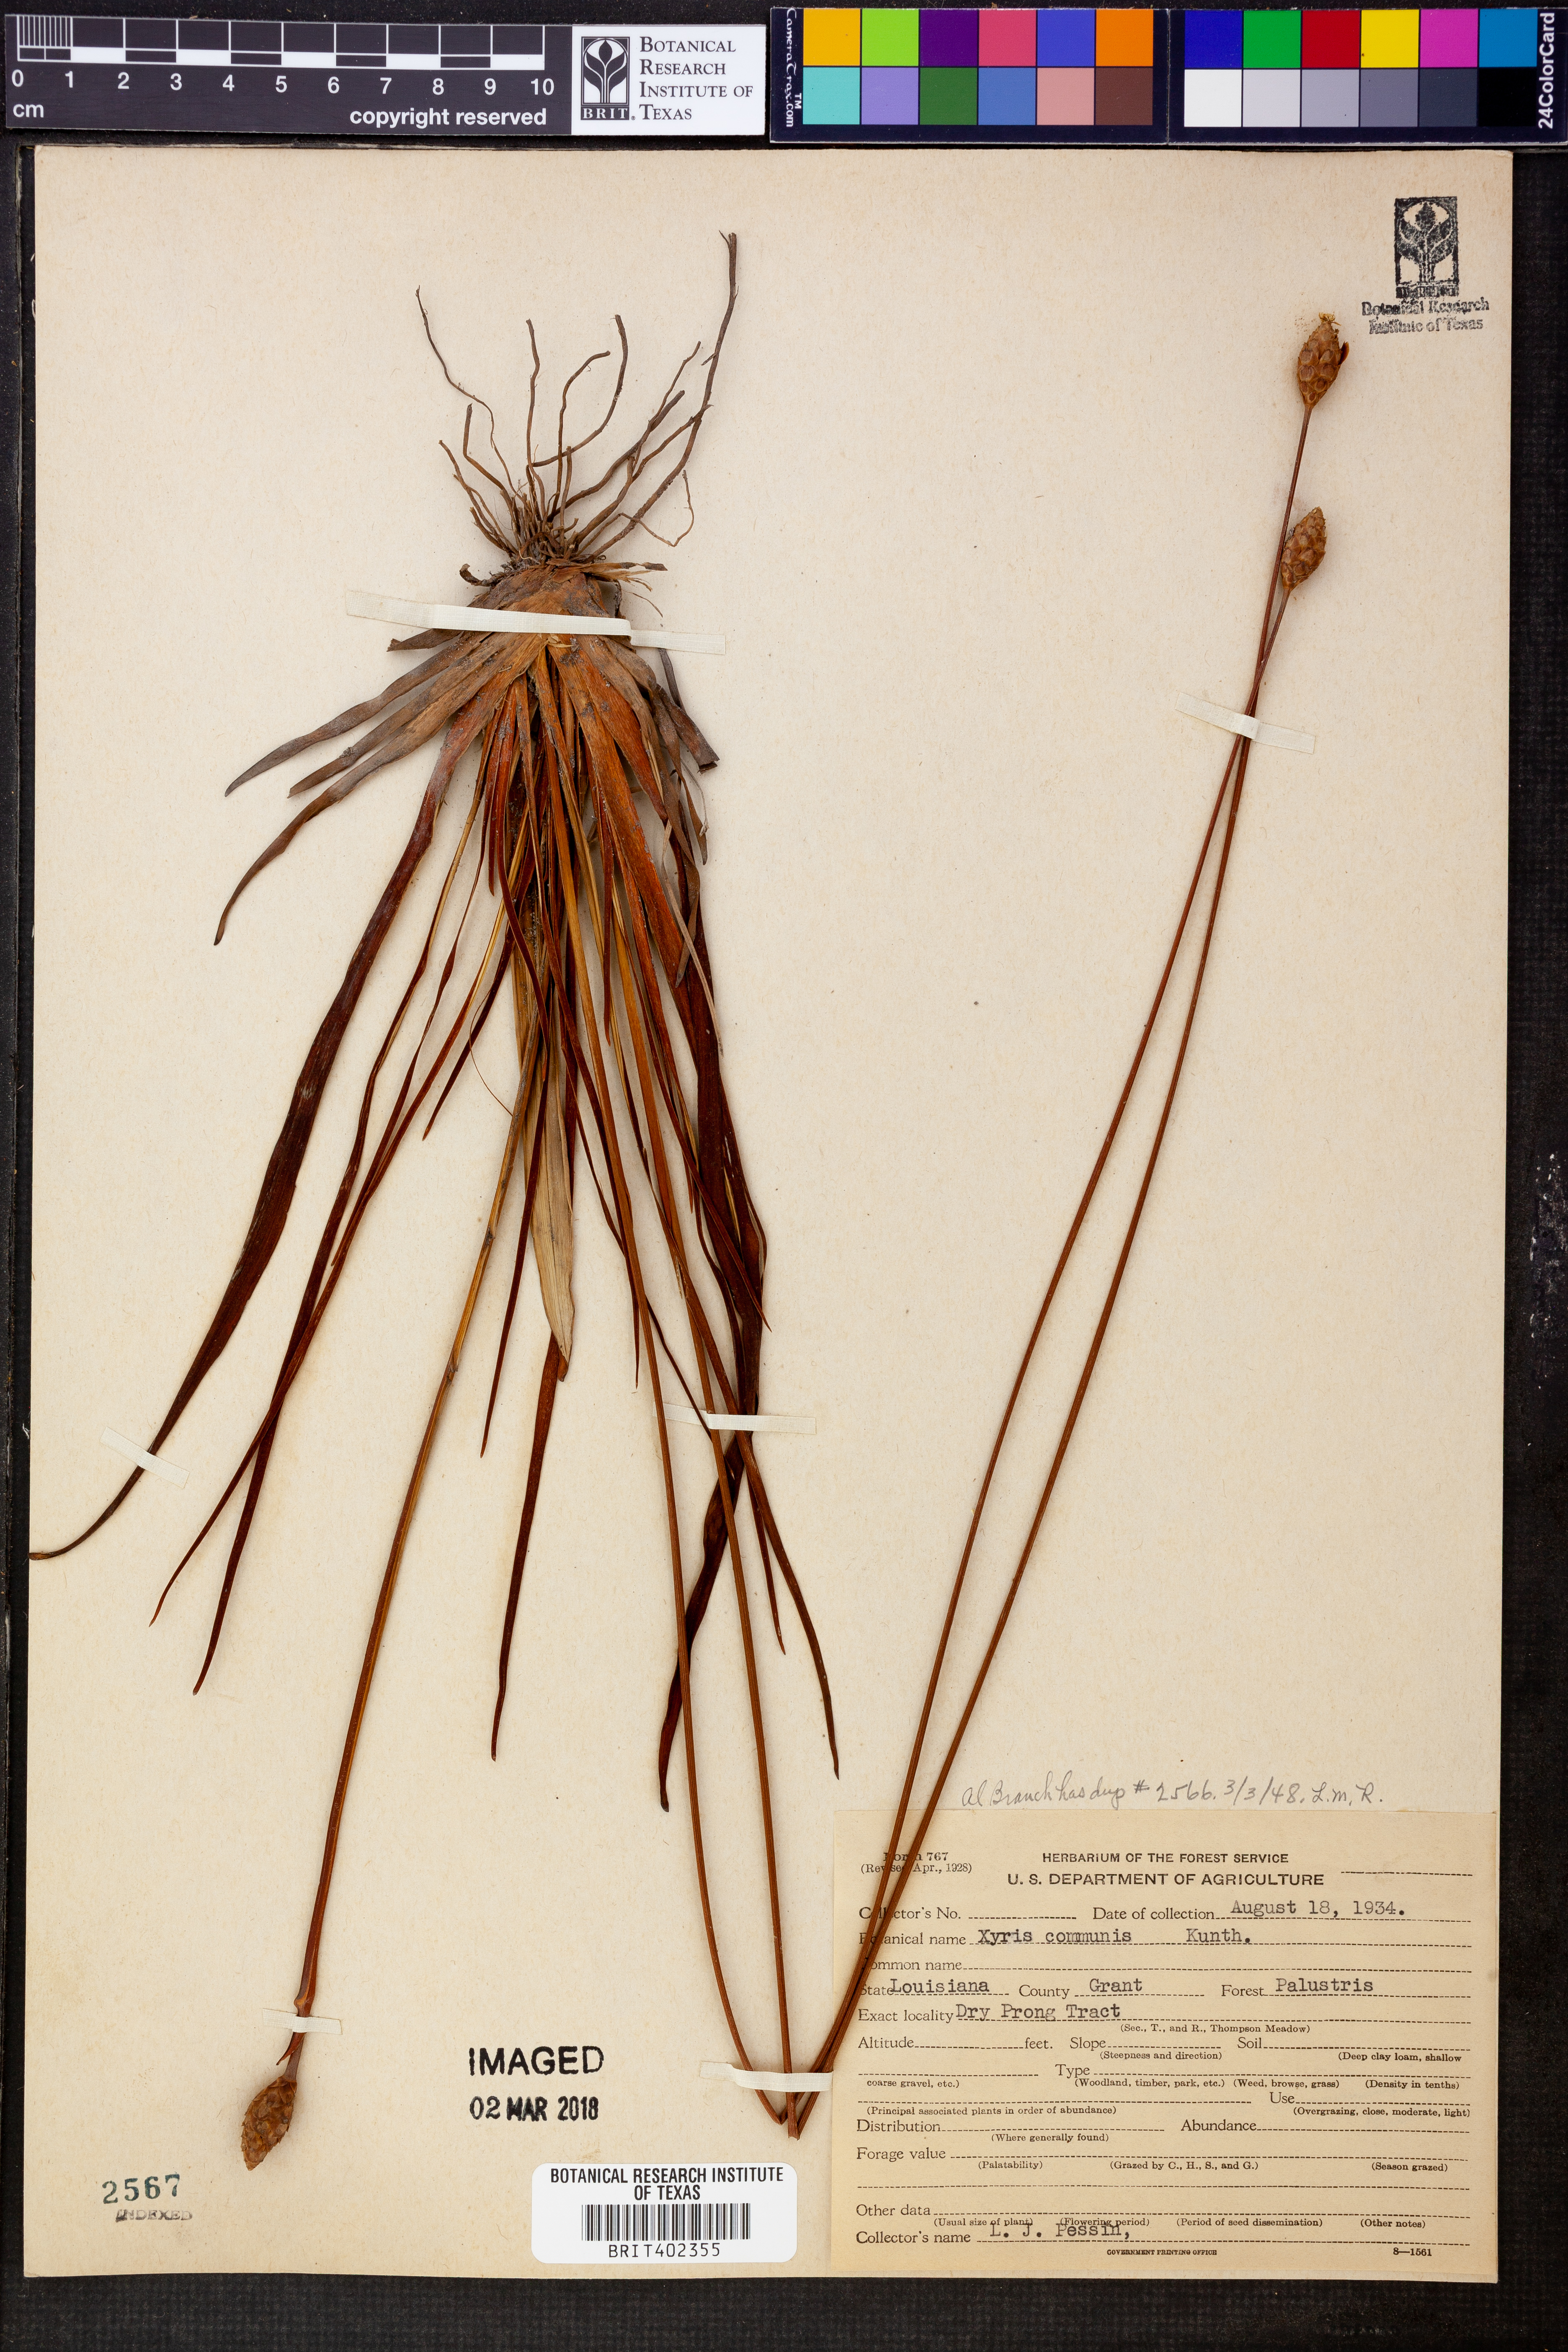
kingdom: Plantae
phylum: Tracheophyta
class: Liliopsida
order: Poales
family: Xyridaceae
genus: Xyris
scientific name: Xyris jupicai
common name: Richard's yelloweyed grass
